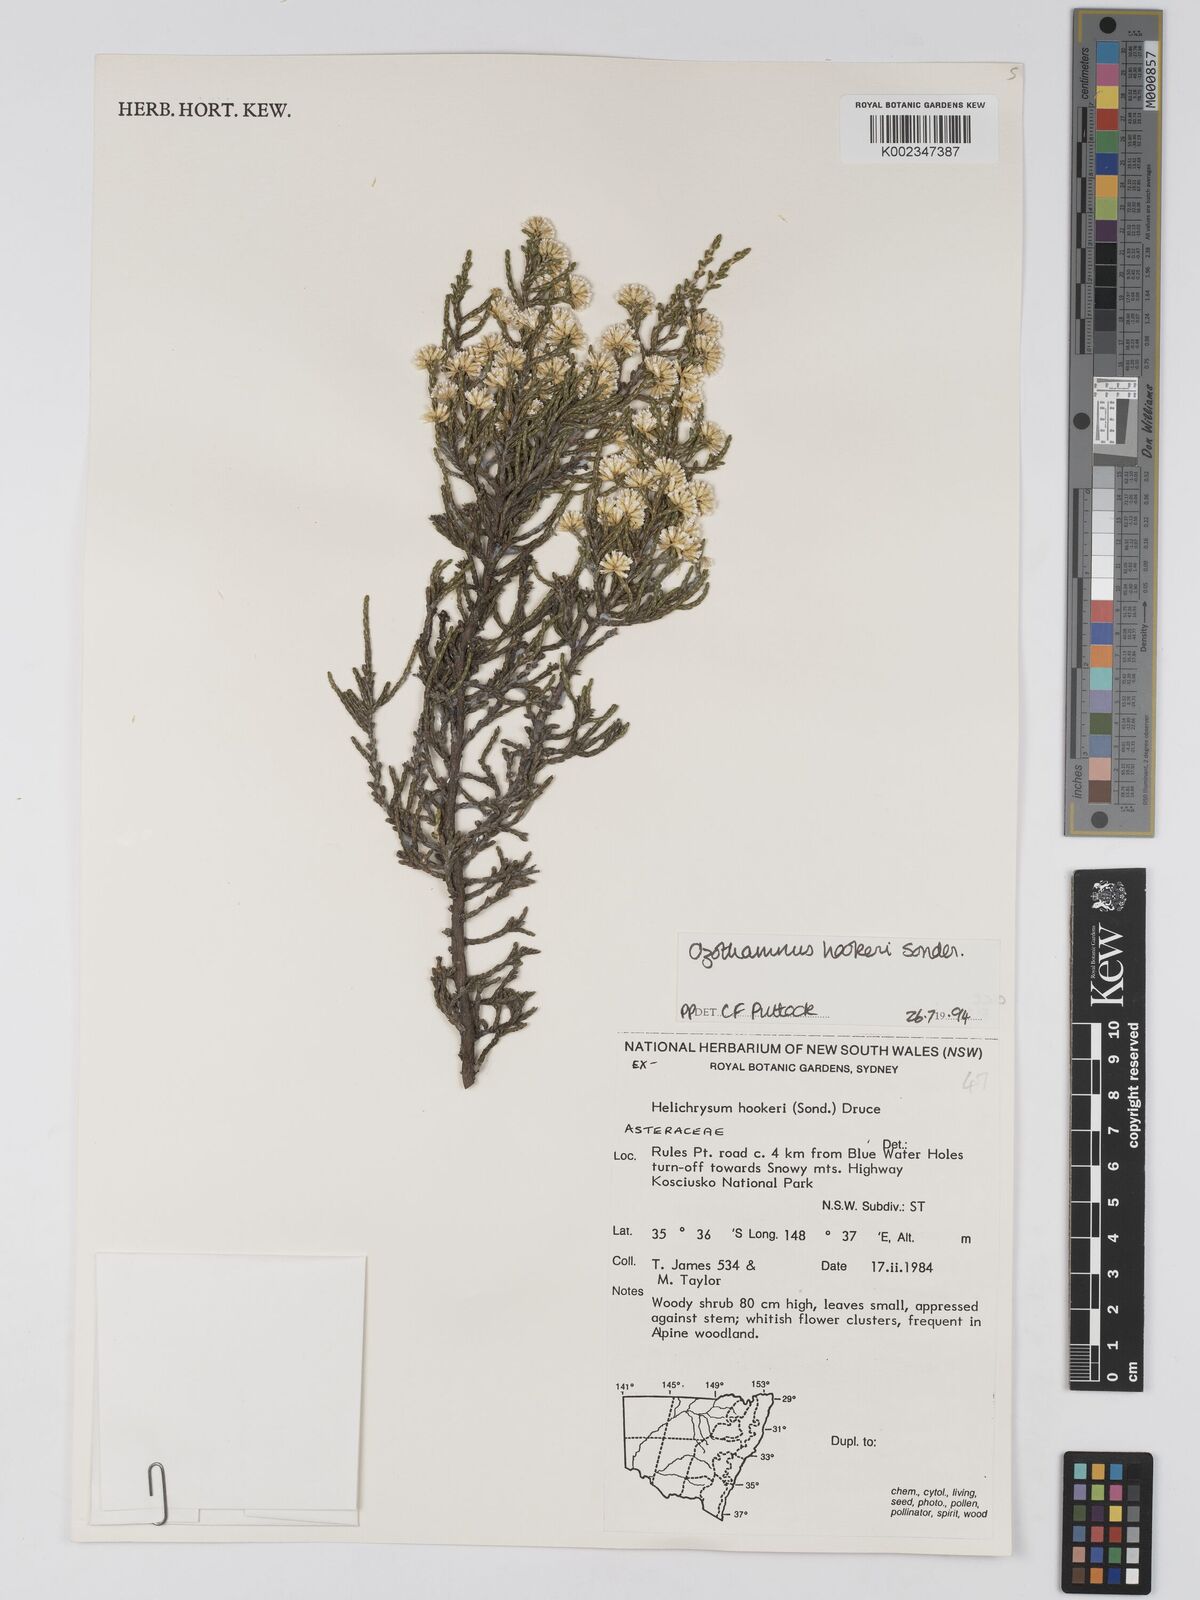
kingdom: Plantae
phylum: Tracheophyta
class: Magnoliopsida
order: Asterales
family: Asteraceae
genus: Ozothamnus
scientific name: Ozothamnus
